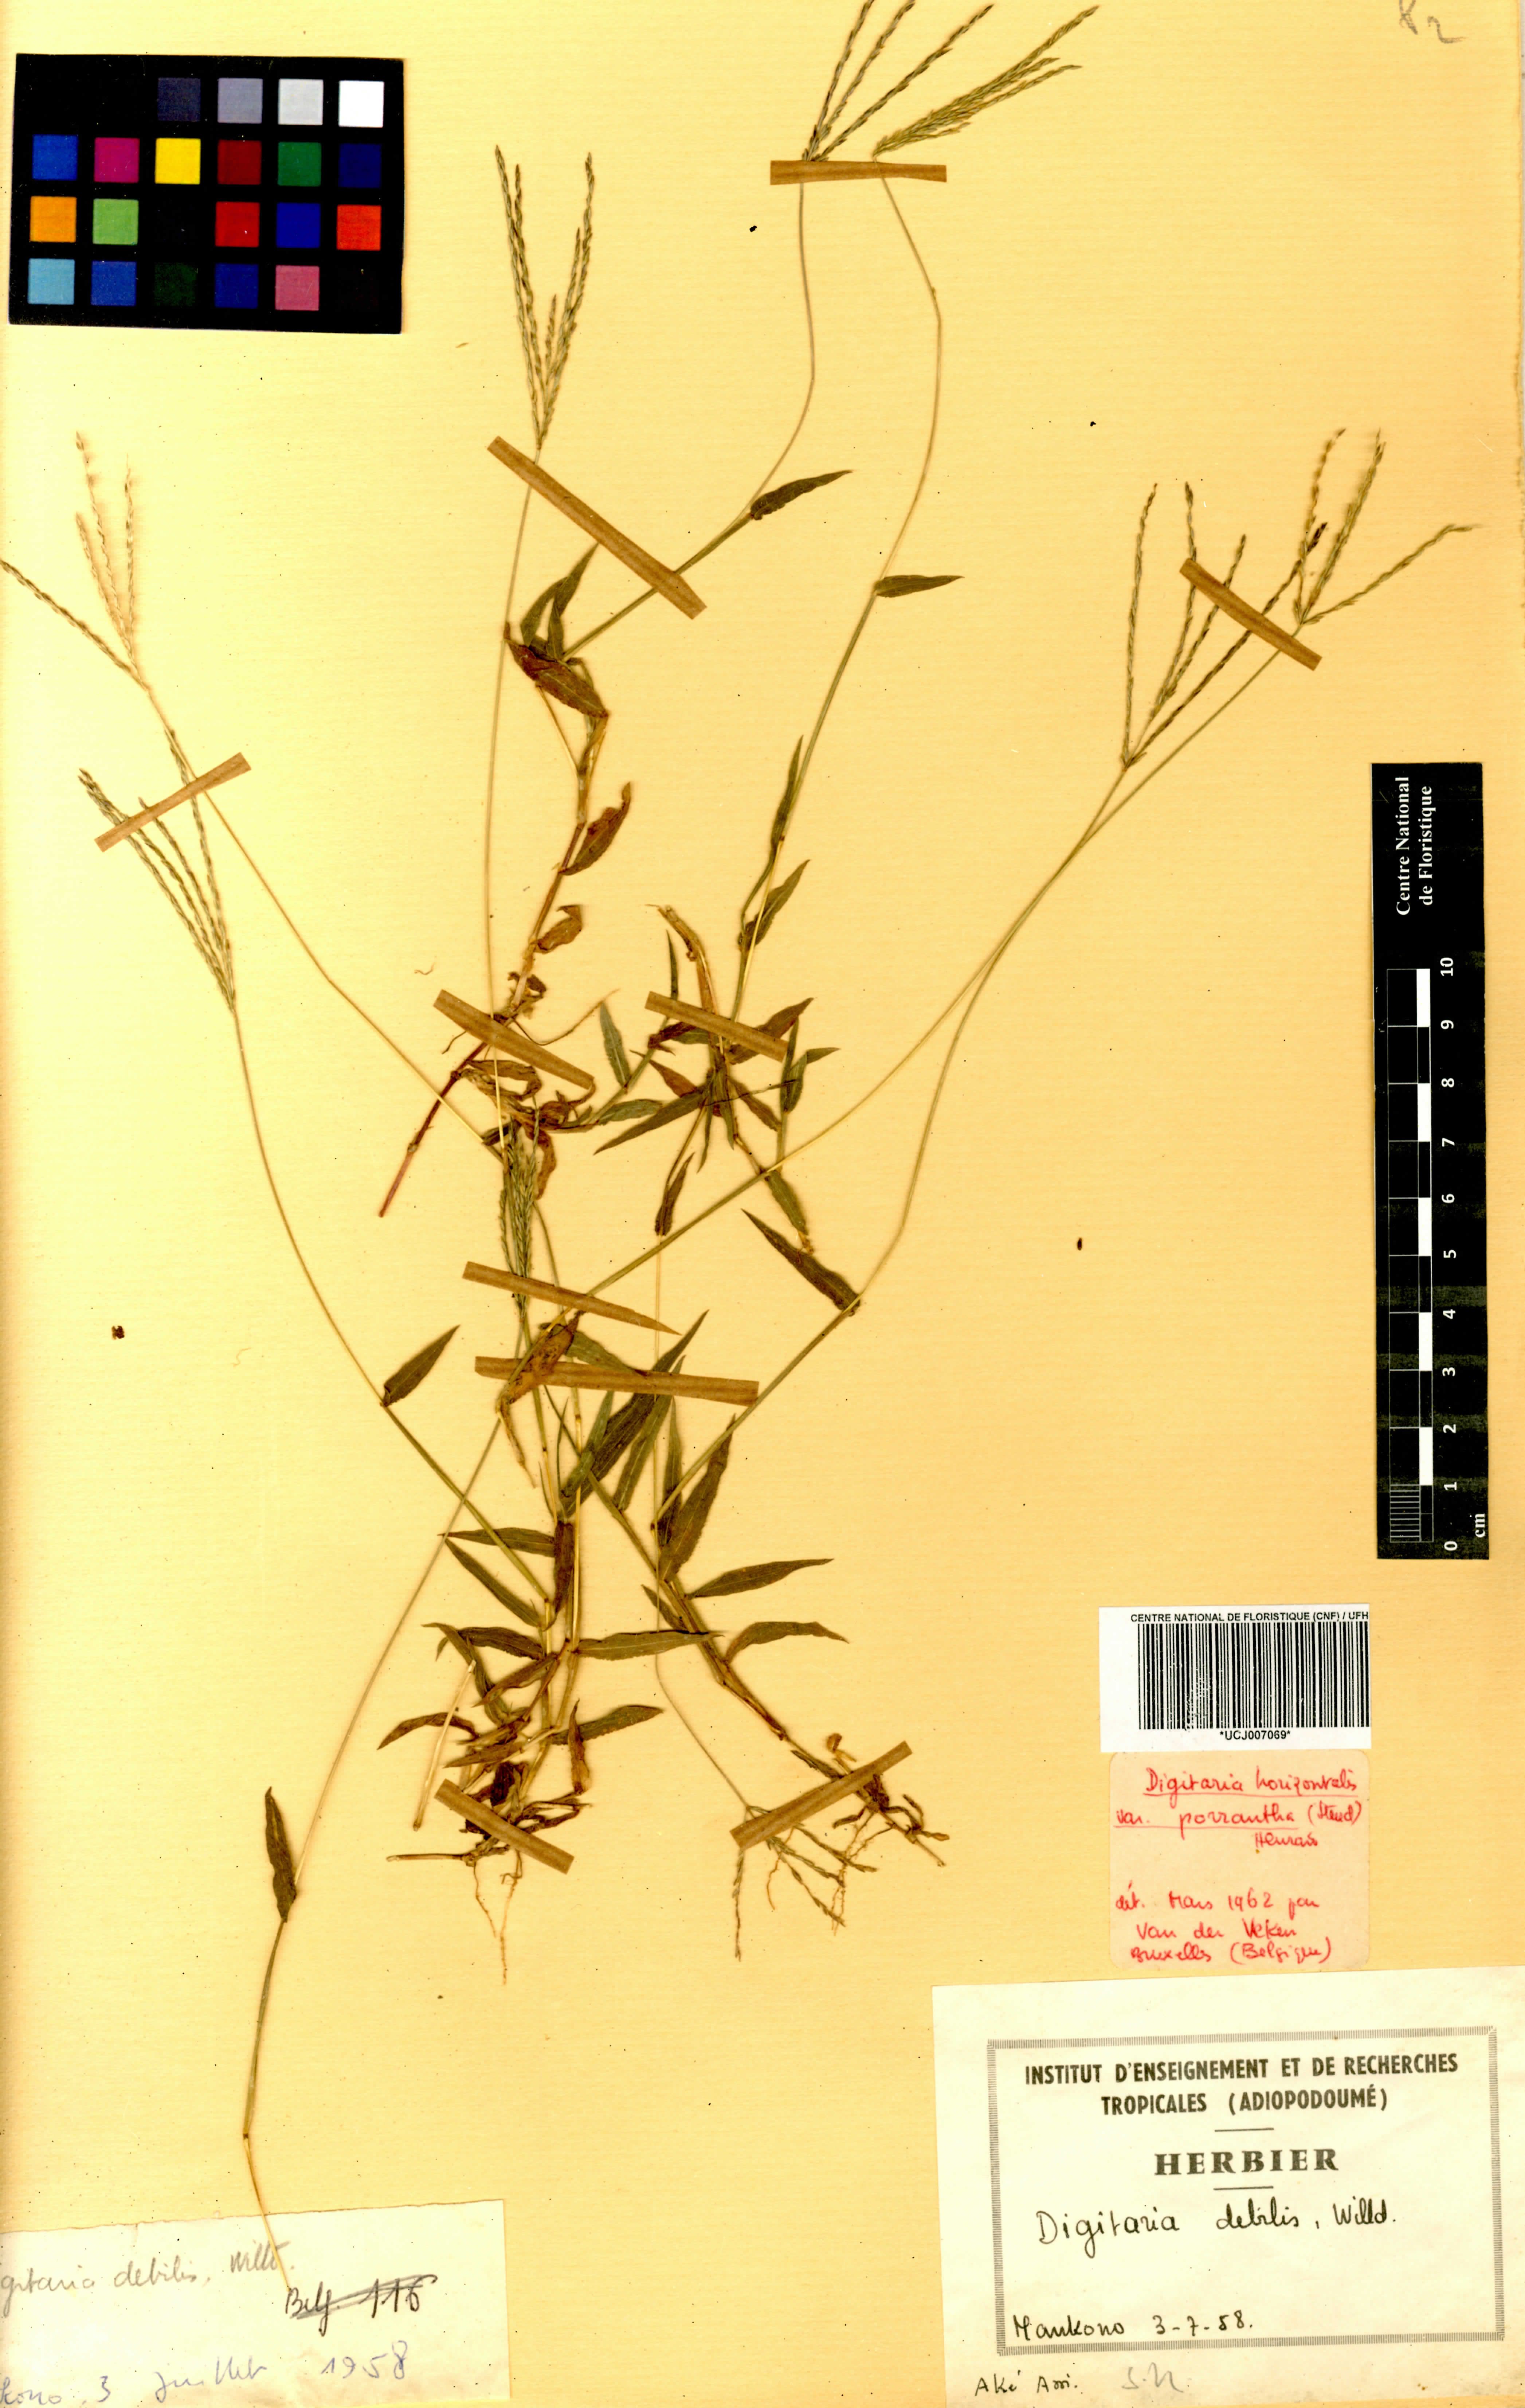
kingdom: Plantae
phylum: Tracheophyta
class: Liliopsida
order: Poales
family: Poaceae
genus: Digitaria
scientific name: Digitaria debilis
